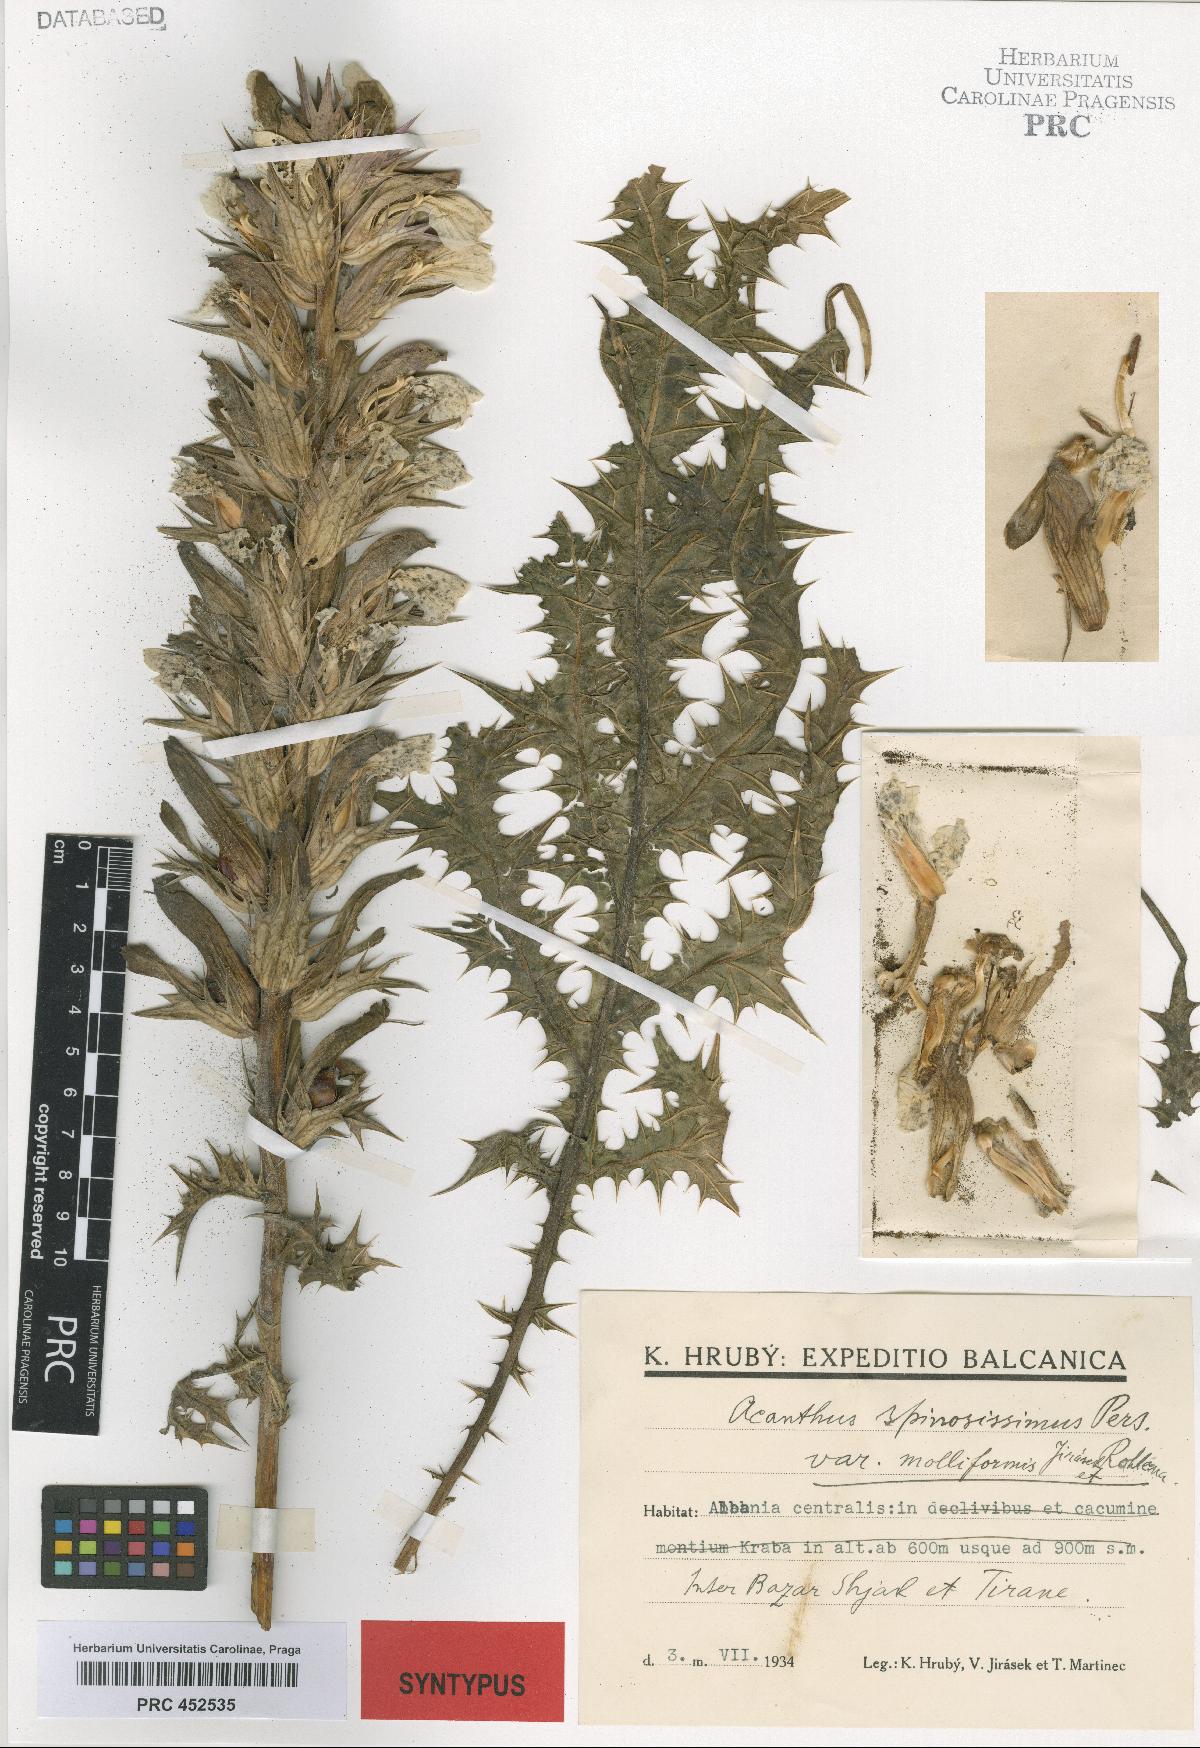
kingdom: Plantae
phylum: Tracheophyta
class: Magnoliopsida
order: Lamiales
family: Acanthaceae
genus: Acanthus
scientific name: Acanthus spinosus
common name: Spiny bear's-breech
